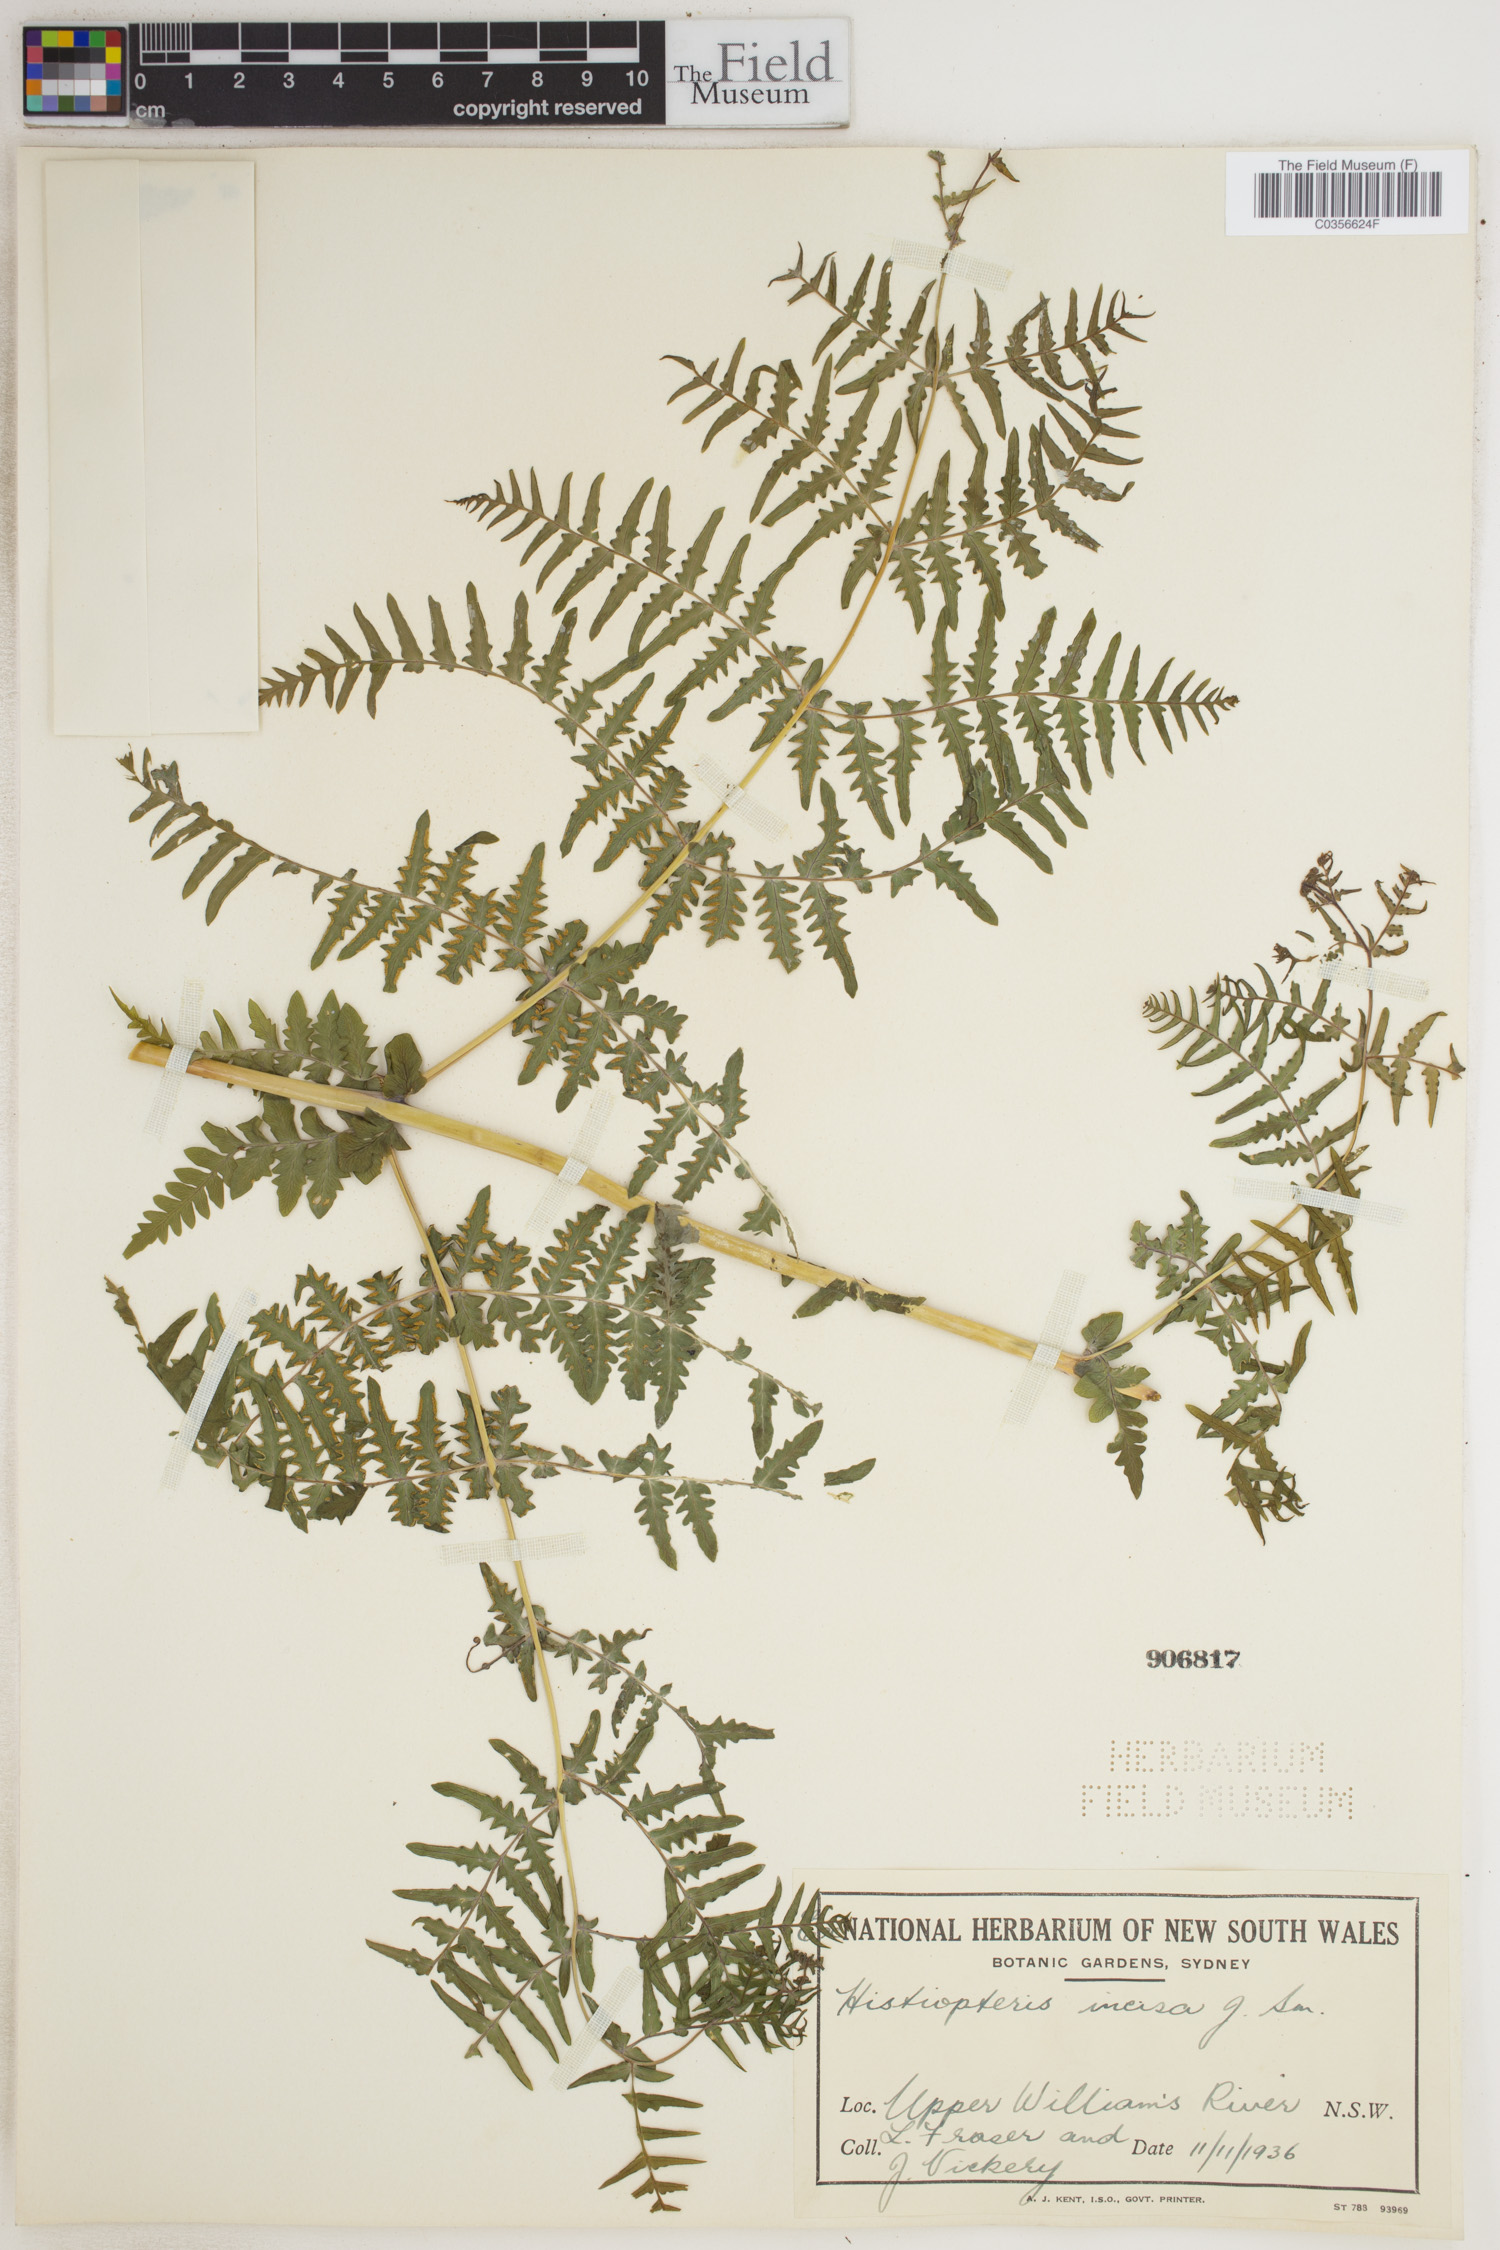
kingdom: Plantae
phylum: Tracheophyta
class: Polypodiopsida
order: Polypodiales
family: Dennstaedtiaceae
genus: Histiopteris
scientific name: Histiopteris incisa
